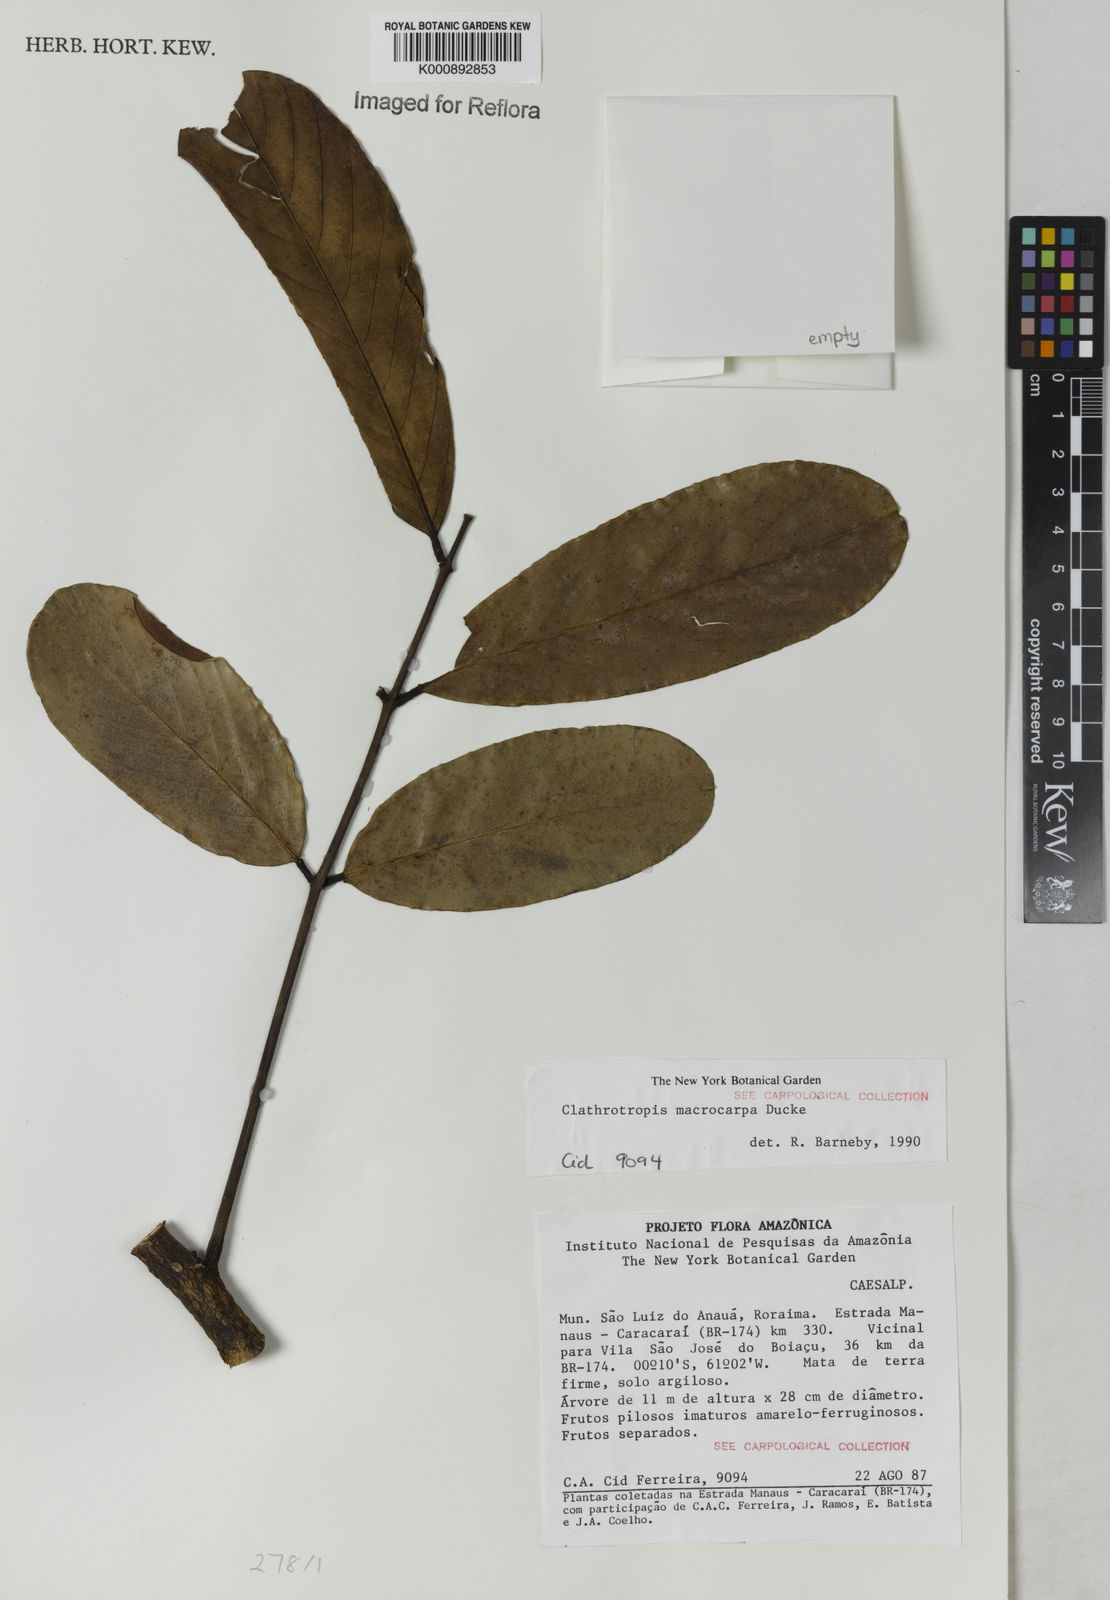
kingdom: Plantae
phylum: Tracheophyta
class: Magnoliopsida
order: Fabales
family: Fabaceae
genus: Clathrotropis
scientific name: Clathrotropis macrocarpa
